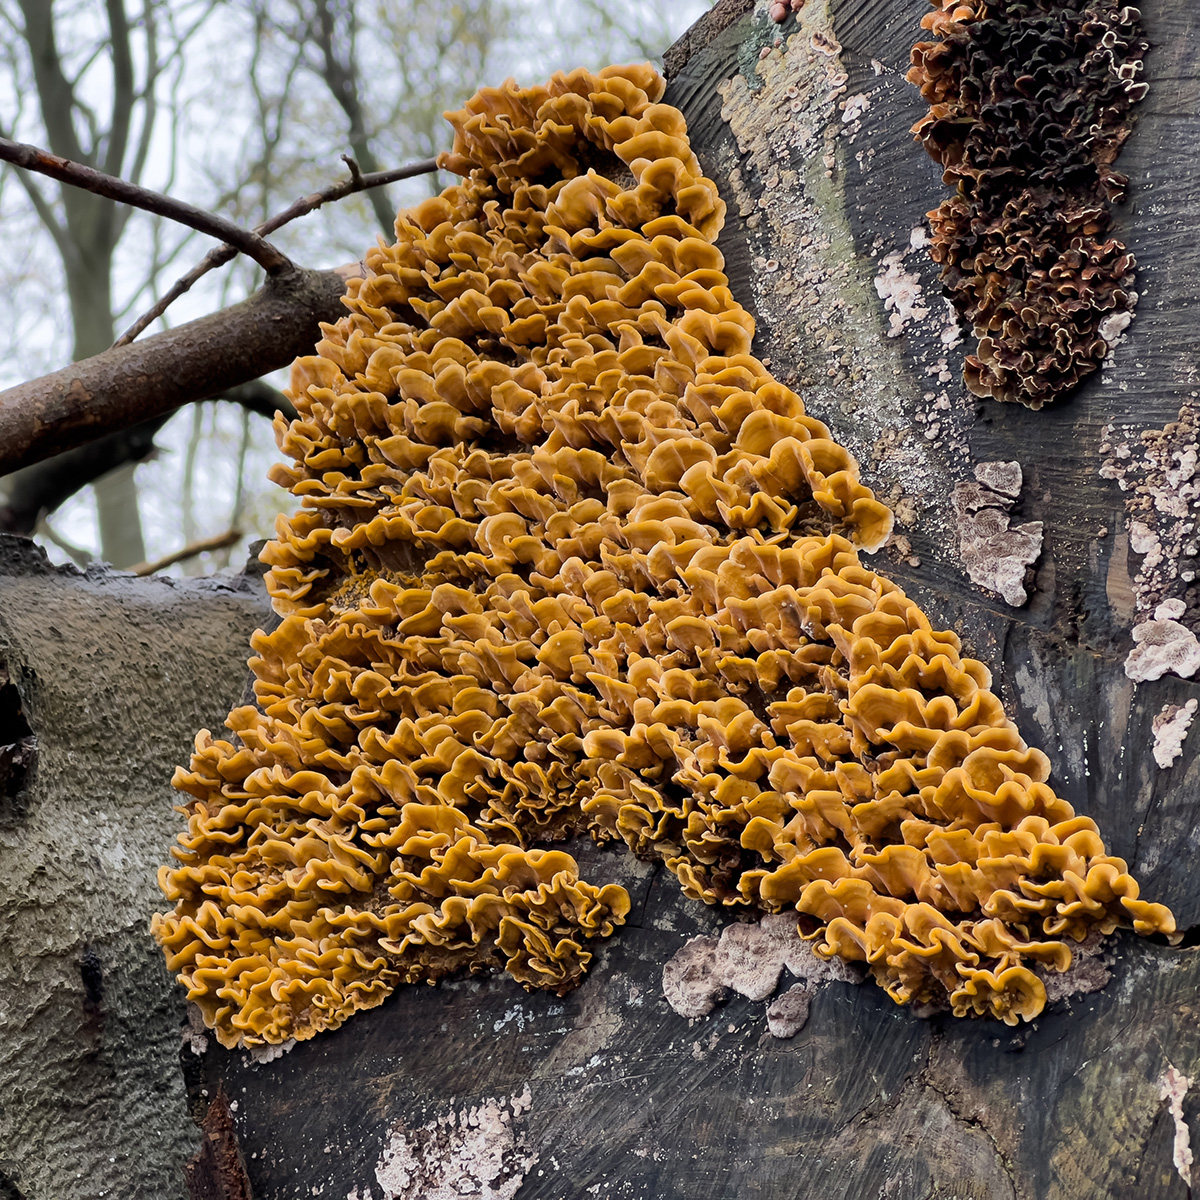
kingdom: Fungi
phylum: Basidiomycota
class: Agaricomycetes
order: Russulales
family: Stereaceae
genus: Stereum
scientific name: Stereum hirsutum
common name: håret lædersvamp
